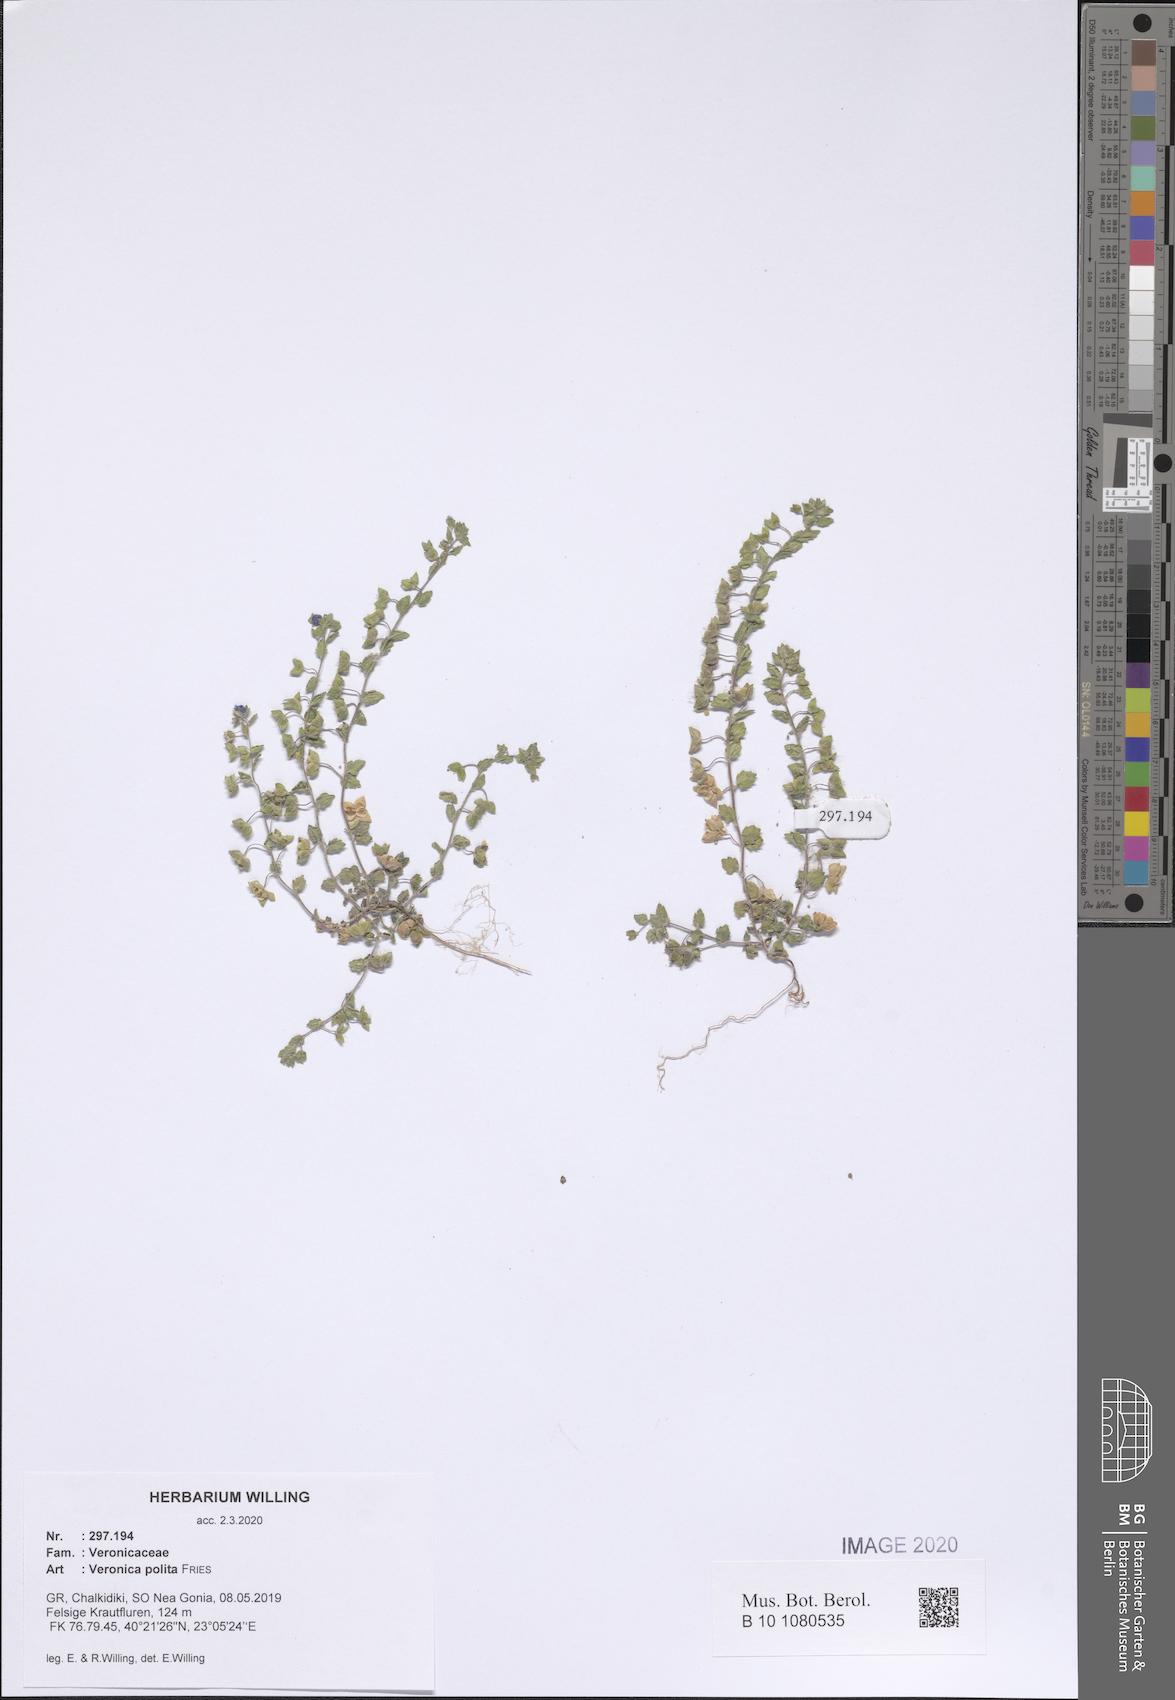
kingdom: Plantae
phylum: Tracheophyta
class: Magnoliopsida
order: Lamiales
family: Plantaginaceae
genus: Veronica
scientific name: Veronica polita
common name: Grey field-speedwell
